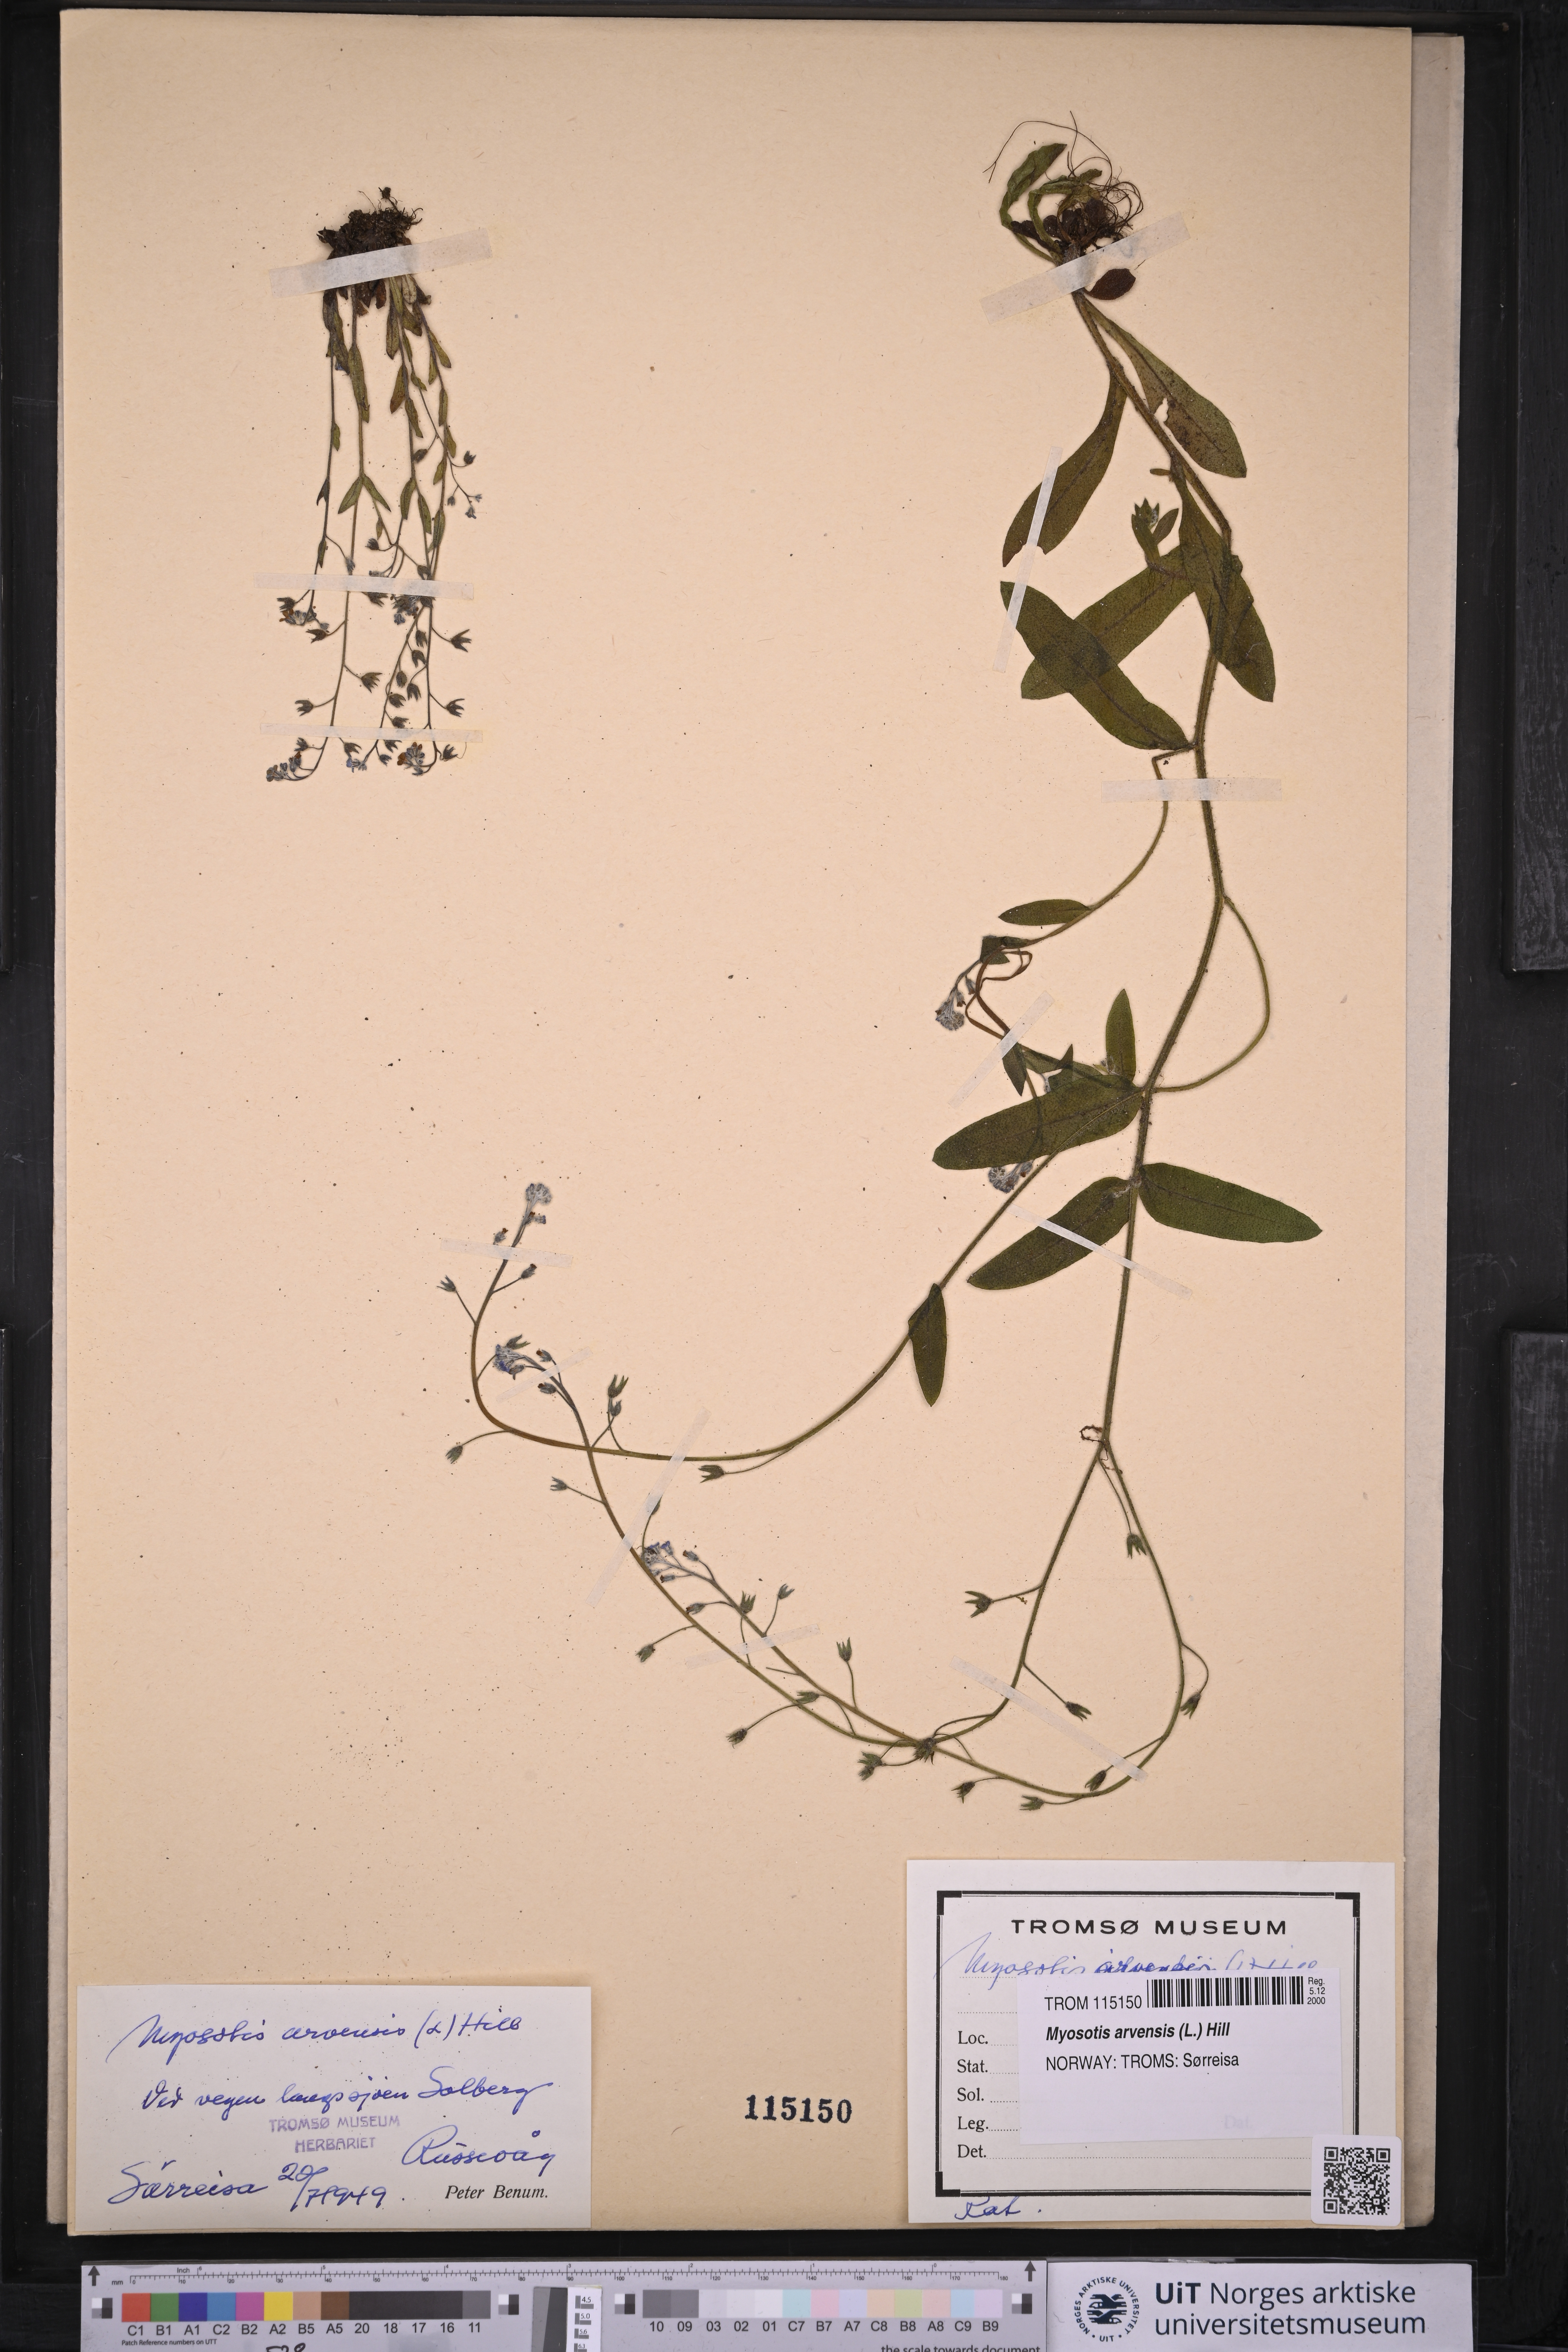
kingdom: Plantae
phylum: Tracheophyta
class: Magnoliopsida
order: Boraginales
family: Boraginaceae
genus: Myosotis
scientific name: Myosotis arvensis
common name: Field forget-me-not
